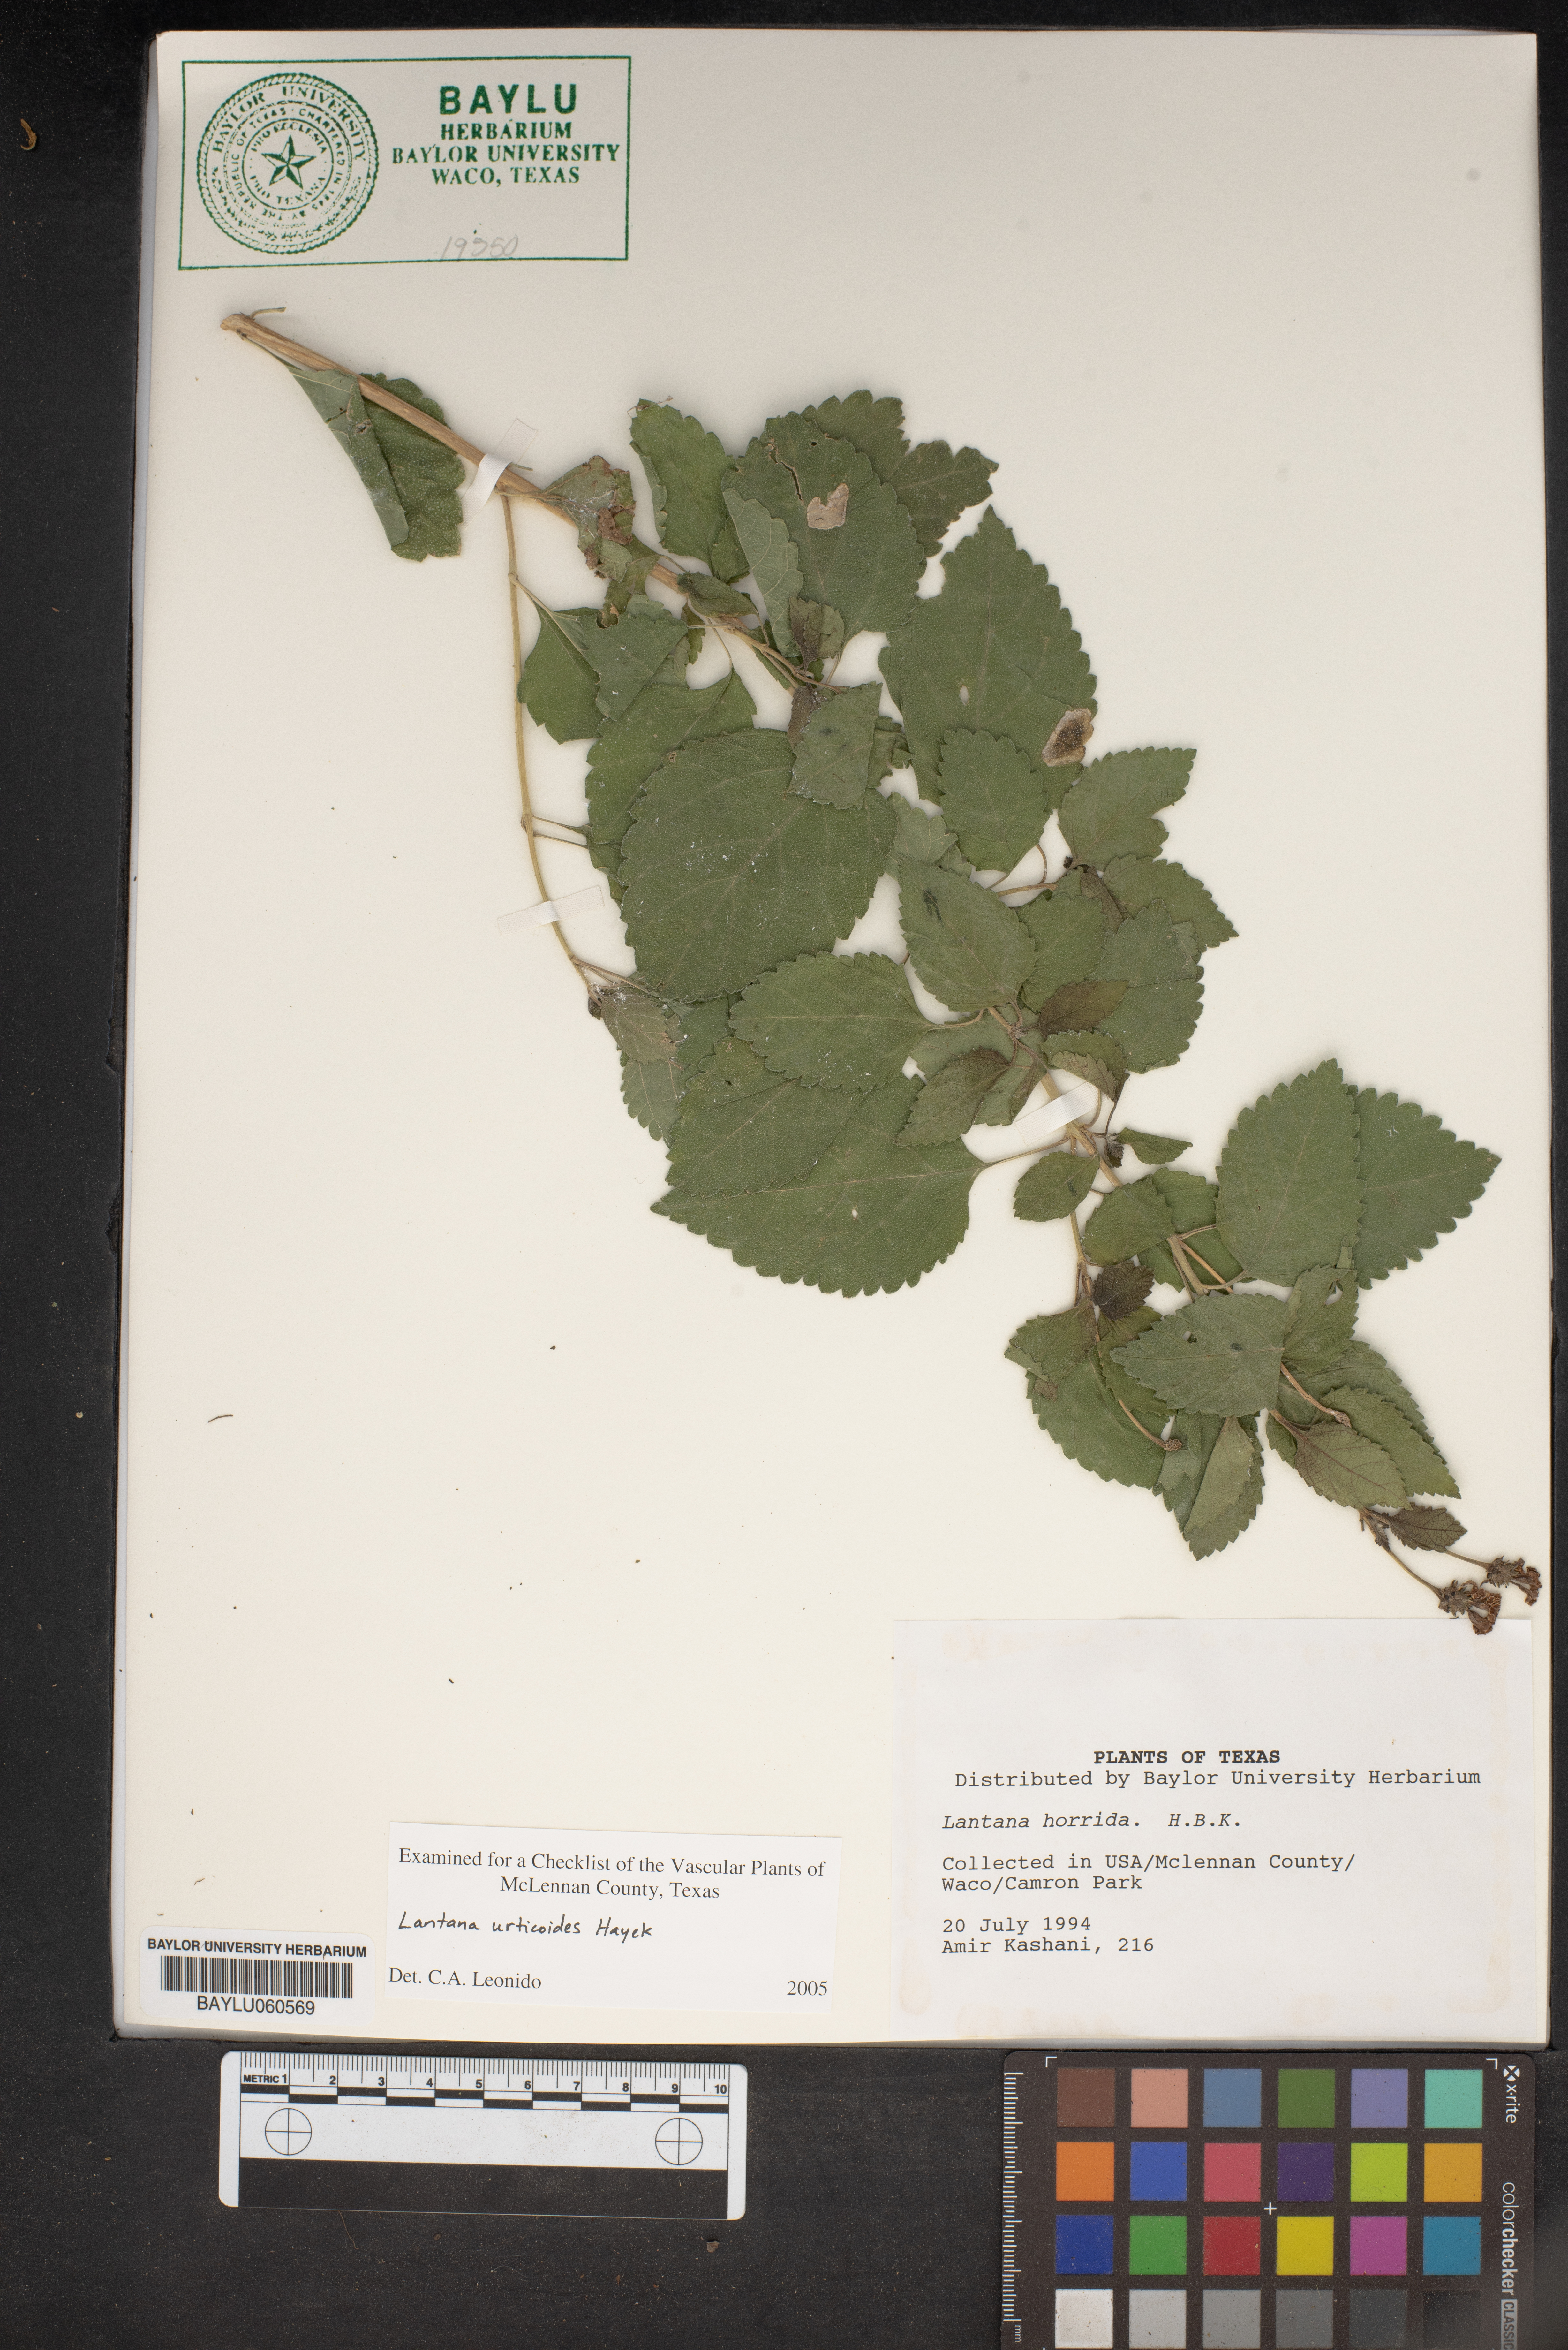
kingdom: Plantae
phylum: Tracheophyta
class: Magnoliopsida
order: Lamiales
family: Verbenaceae
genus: Lantana
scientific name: Lantana urticoides
